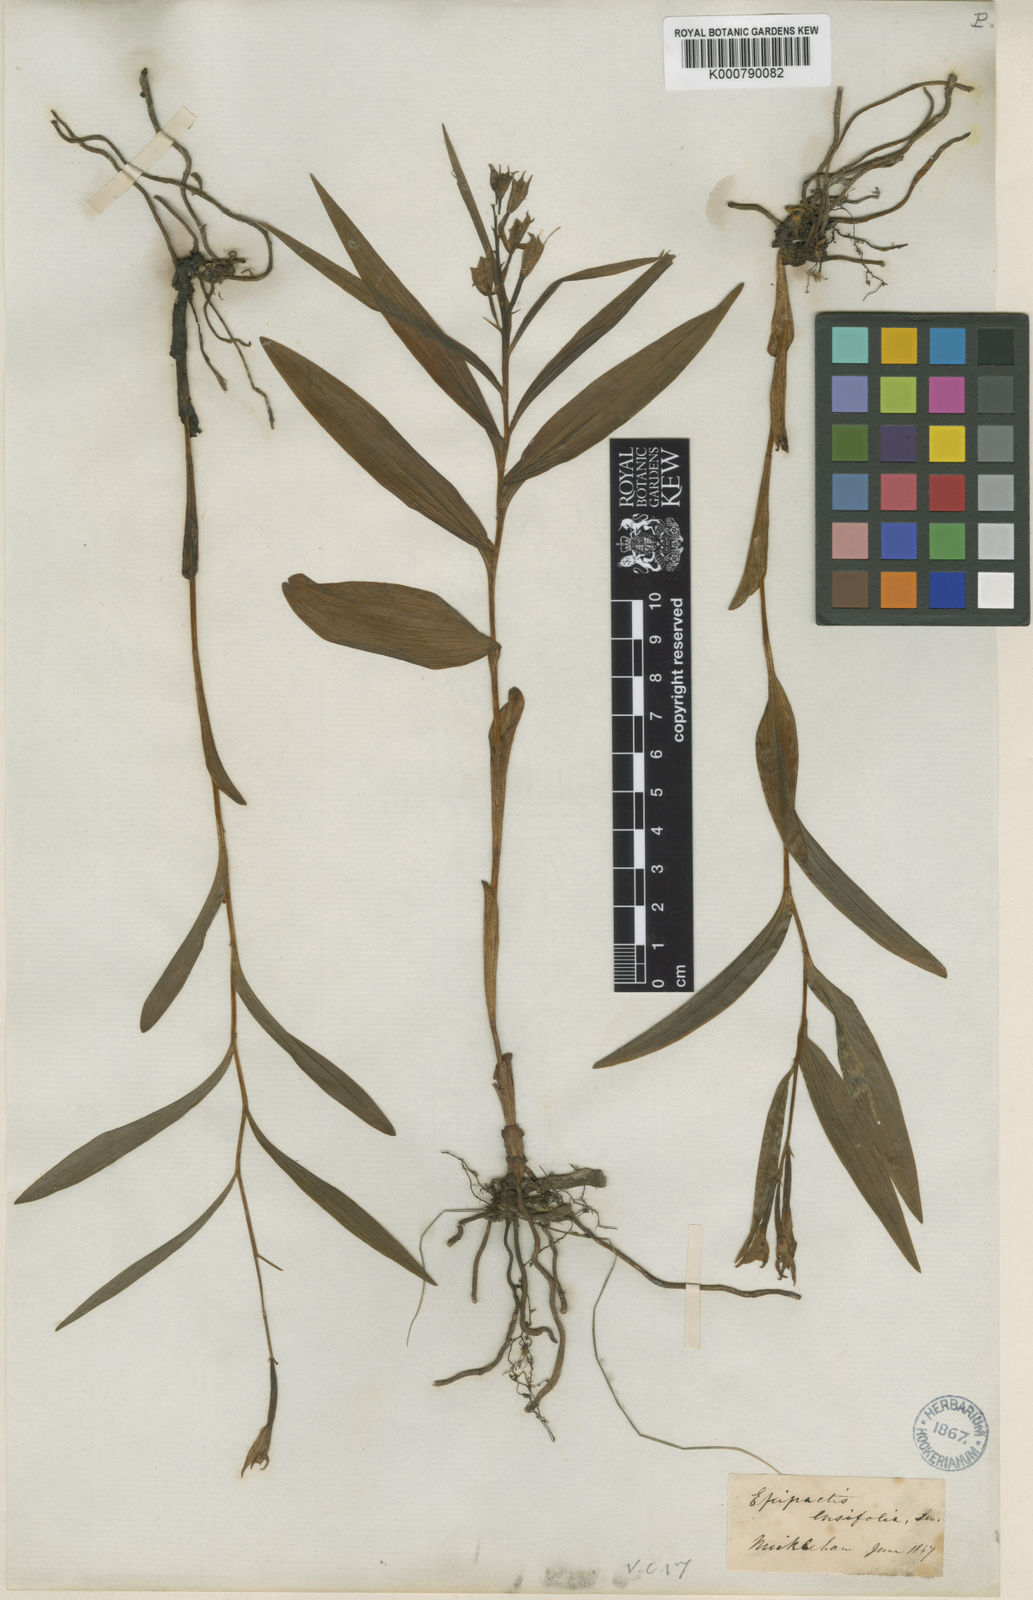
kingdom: Plantae
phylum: Tracheophyta
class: Liliopsida
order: Asparagales
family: Orchidaceae
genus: Cephalanthera
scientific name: Cephalanthera longifolia
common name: Narrow-leaved helleborine
